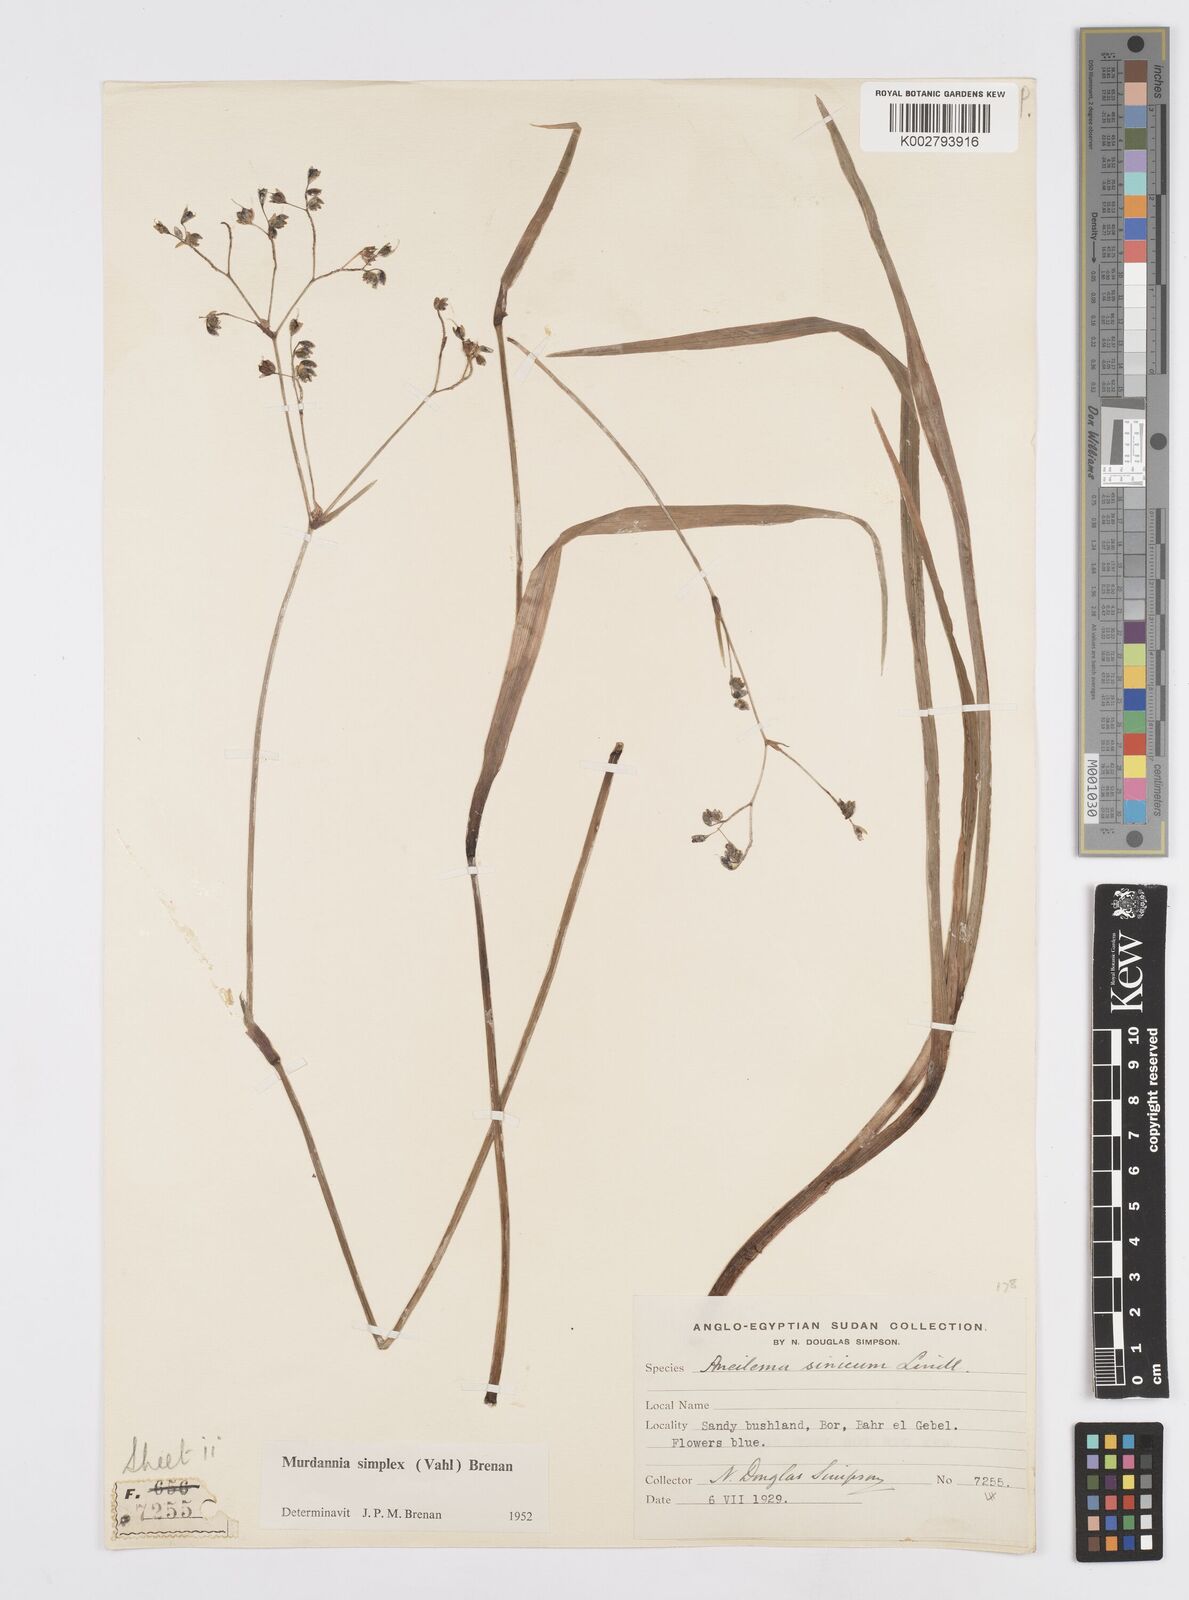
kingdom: Plantae
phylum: Tracheophyta
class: Liliopsida
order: Commelinales
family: Commelinaceae
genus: Murdannia
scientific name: Murdannia simplex
